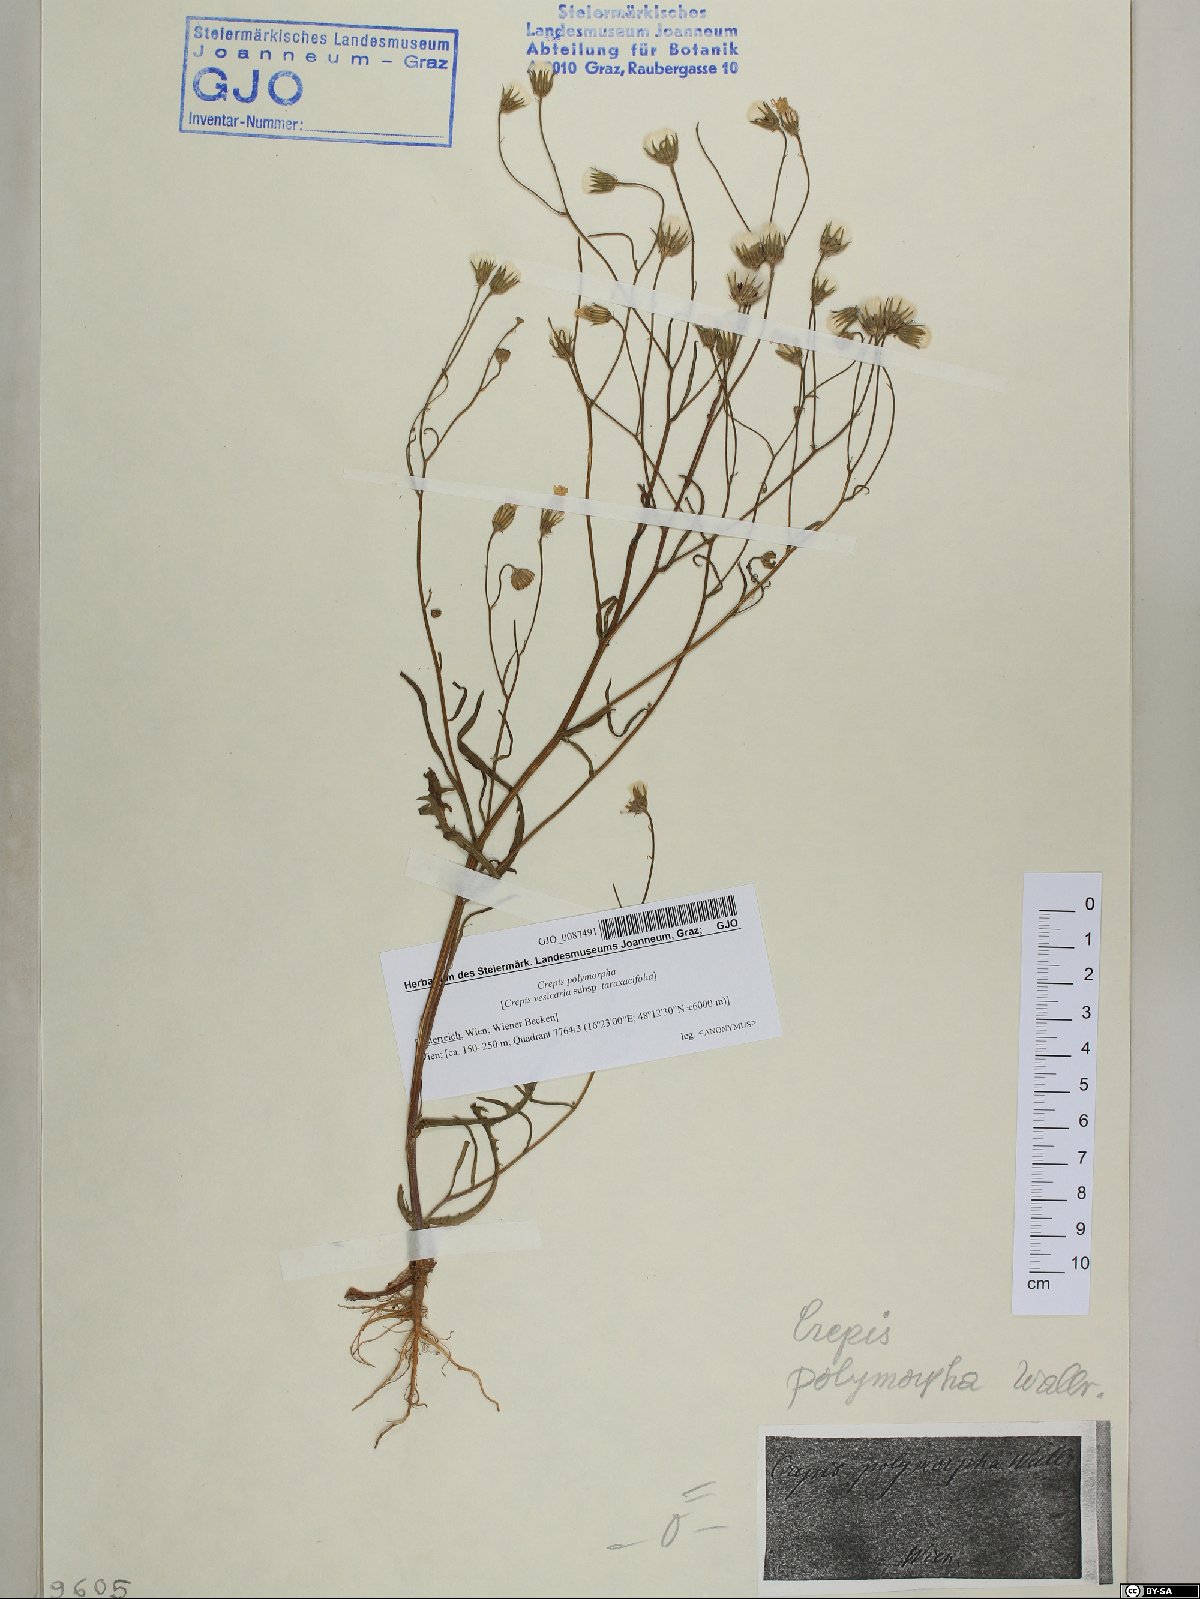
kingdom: Plantae
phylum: Tracheophyta
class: Magnoliopsida
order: Asterales
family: Asteraceae
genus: Crepis
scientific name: Crepis capillaris
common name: Smooth hawksbeard
